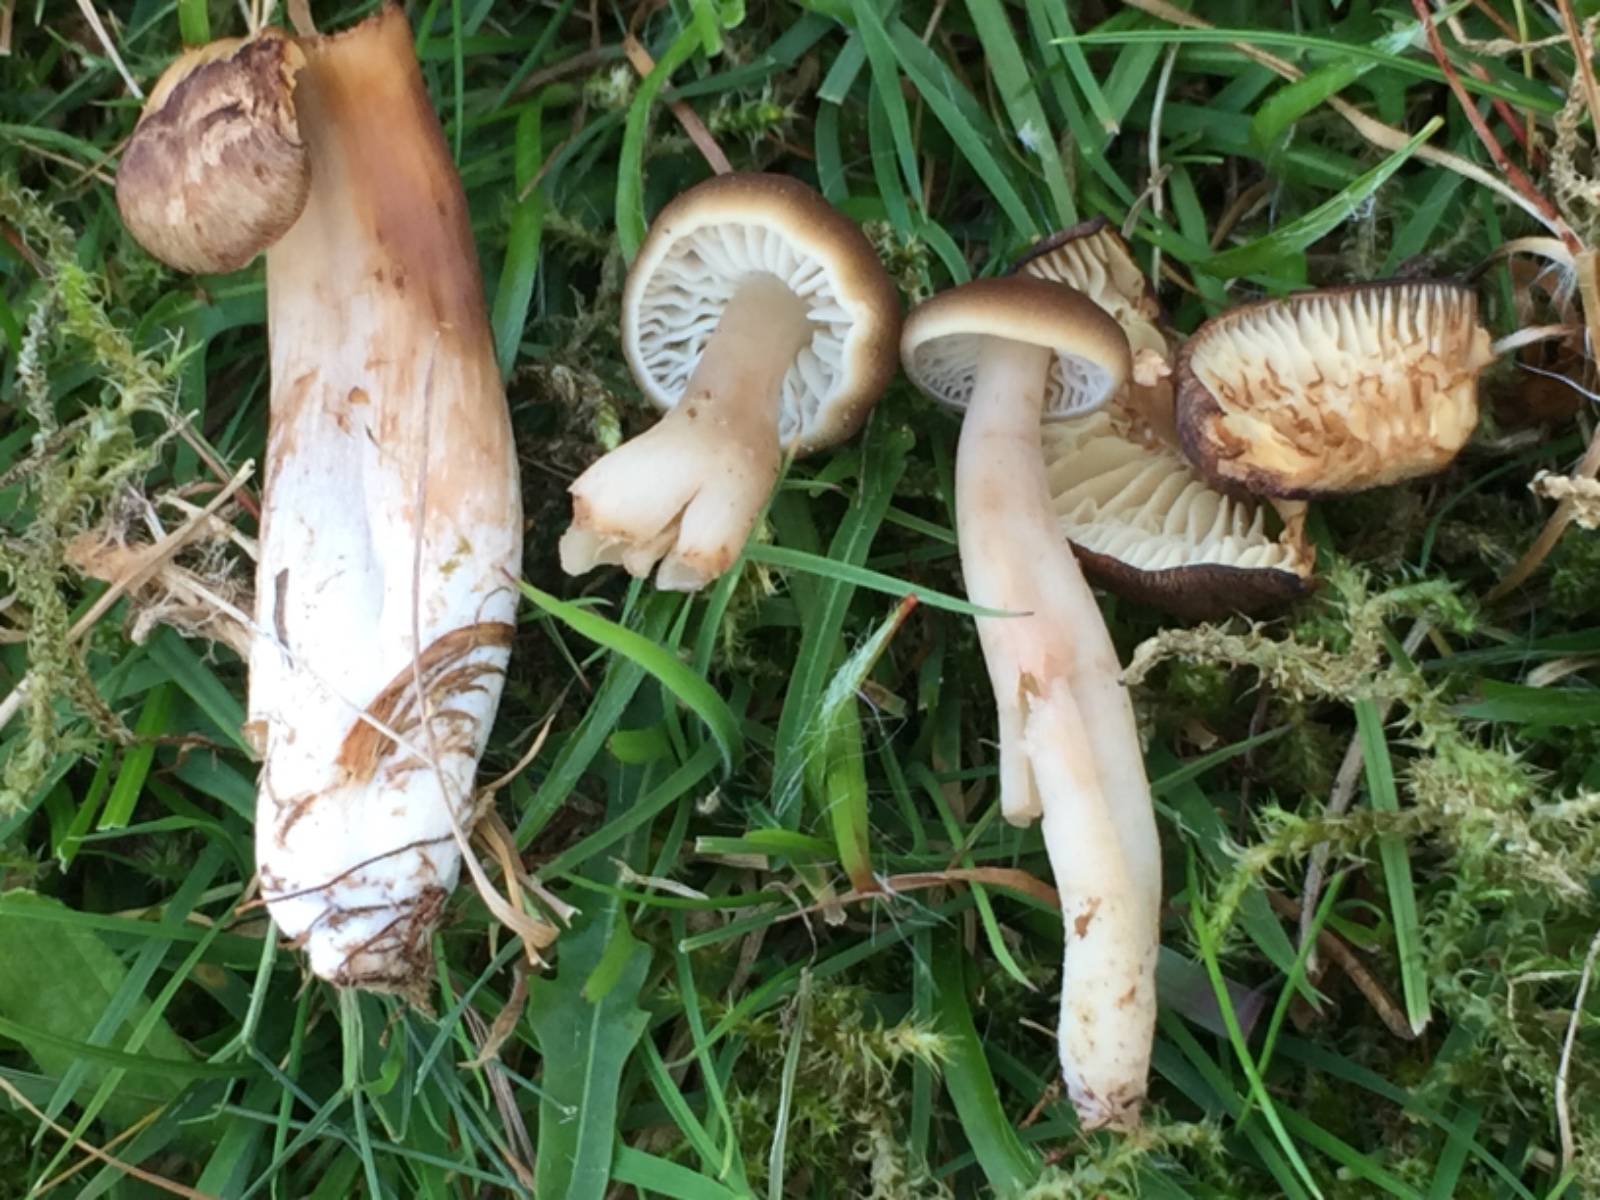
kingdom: Fungi
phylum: Basidiomycota
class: Agaricomycetes
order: Agaricales
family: Hygrophoraceae
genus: Neohygrocybe
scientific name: Neohygrocybe nitrata
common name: stinkende vokshat
